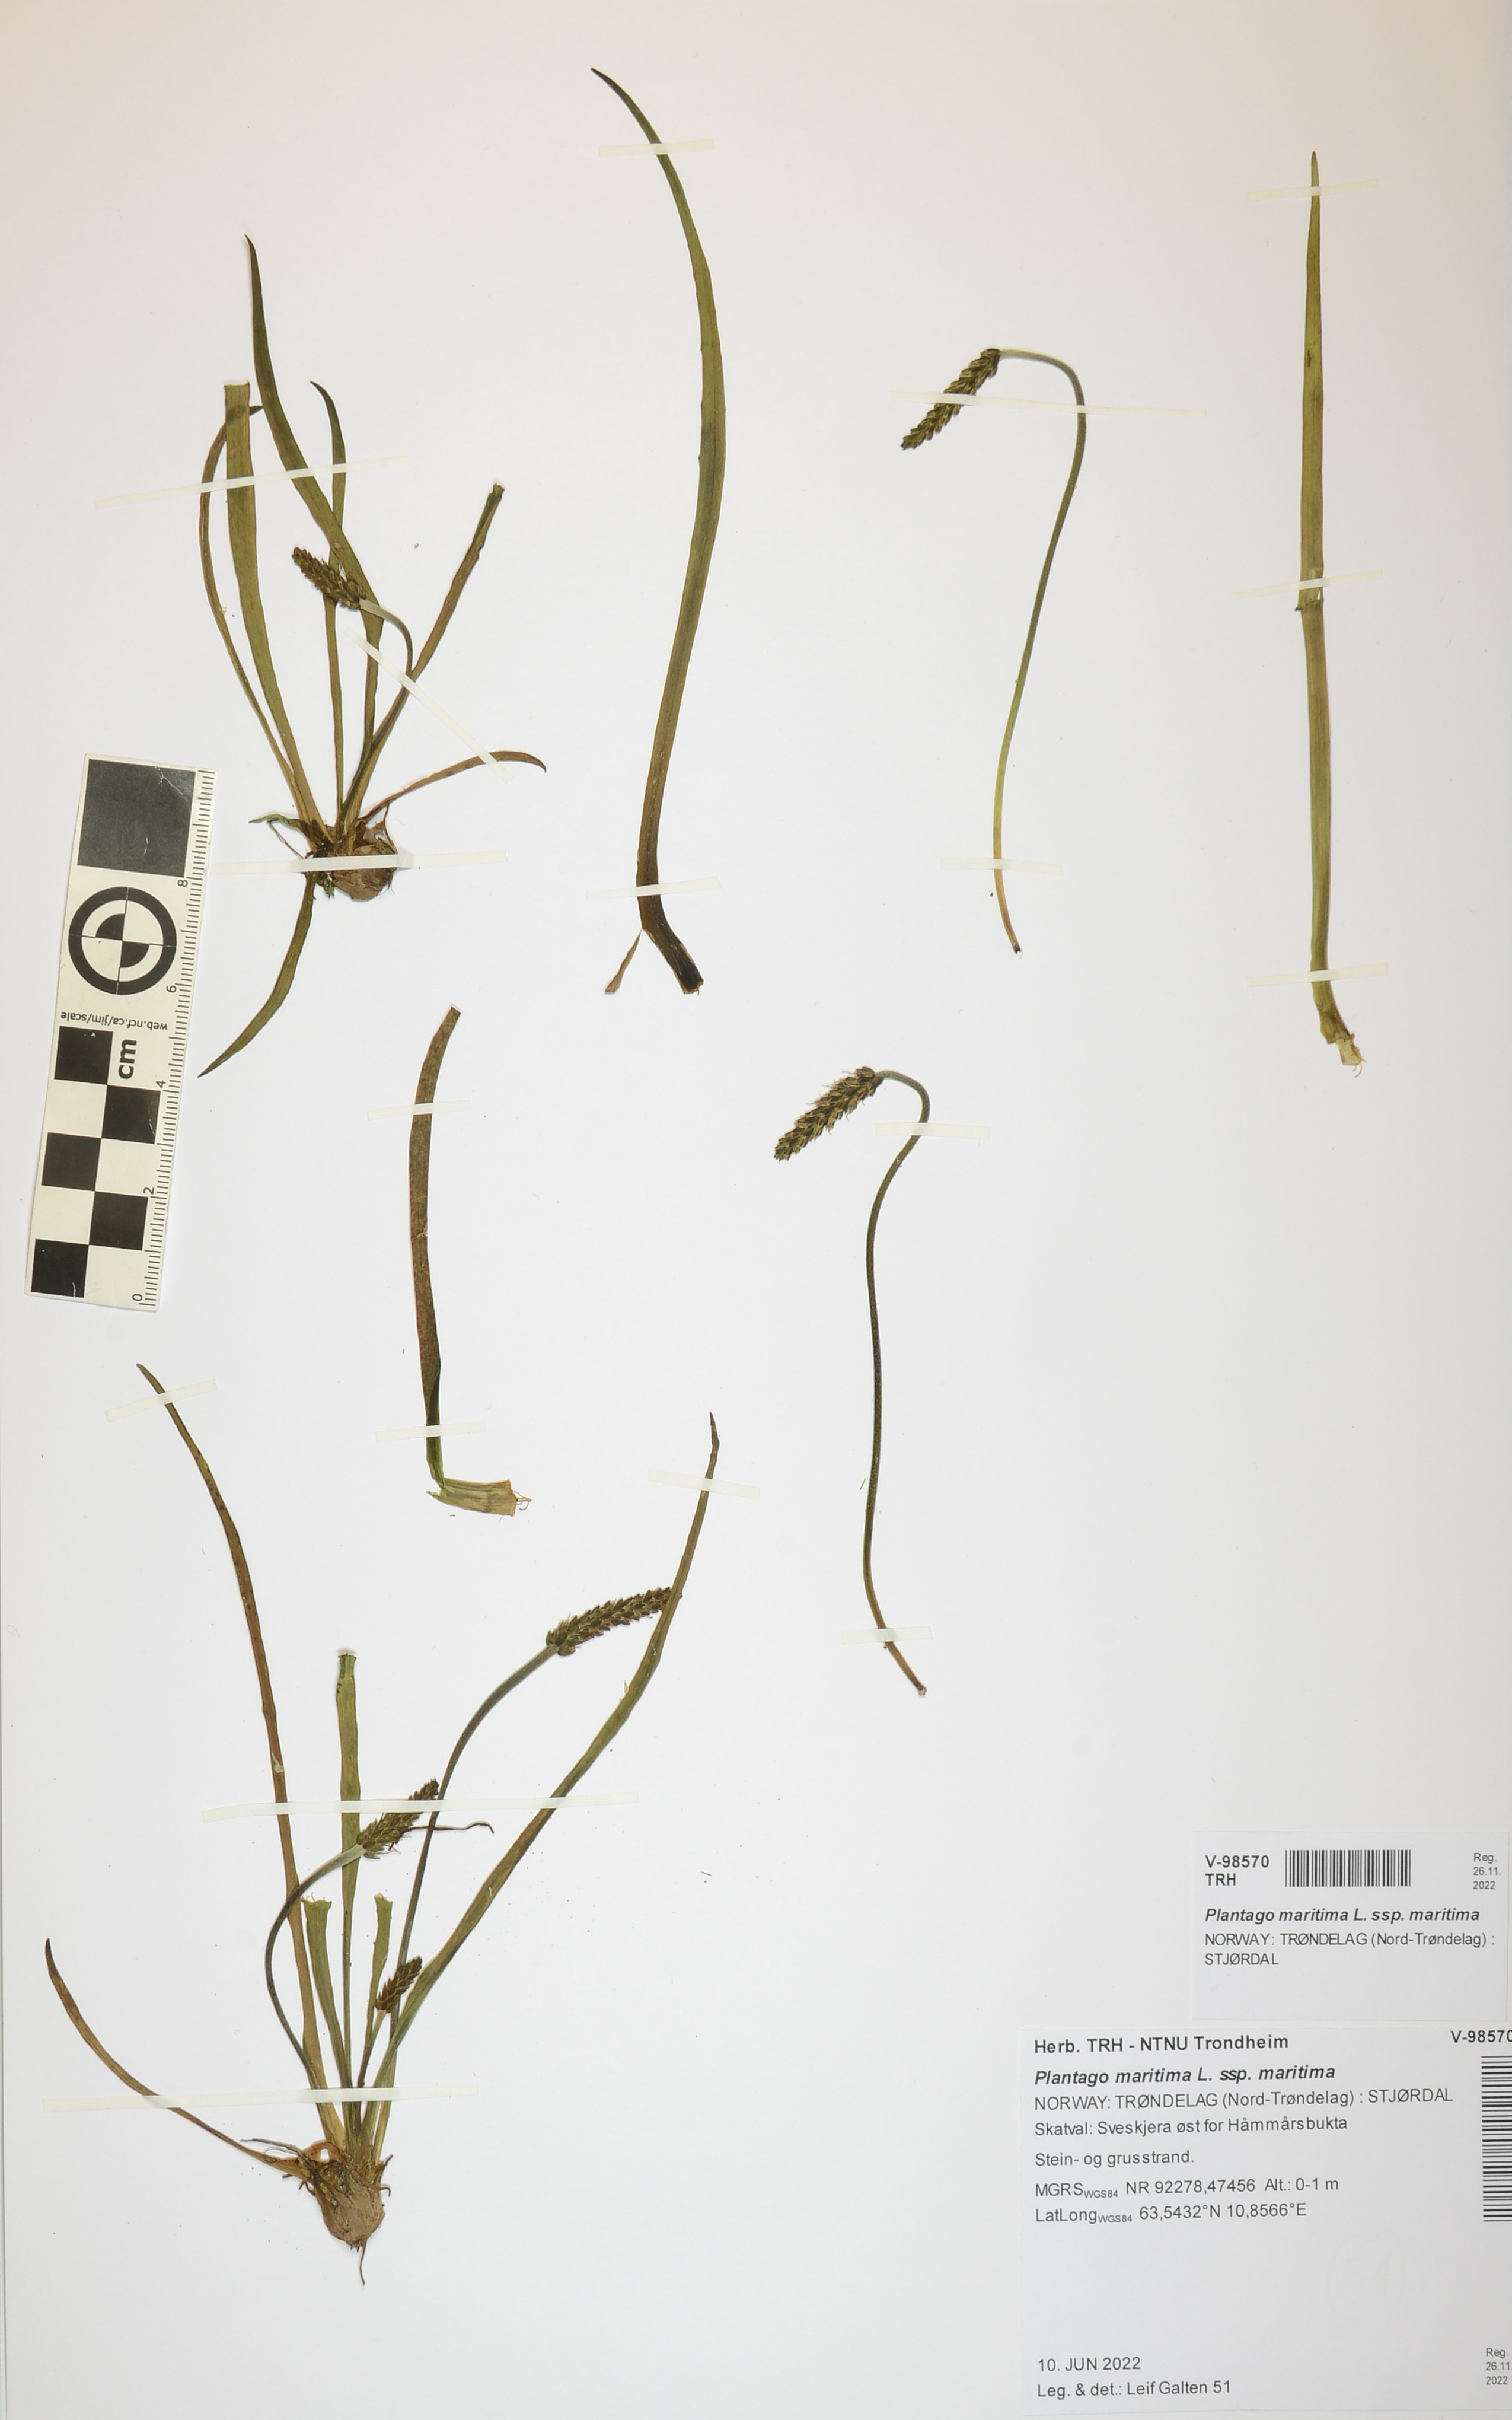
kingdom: Plantae
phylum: Tracheophyta
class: Magnoliopsida
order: Lamiales
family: Plantaginaceae
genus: Plantago
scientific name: Plantago maritima
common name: Sea plantain
